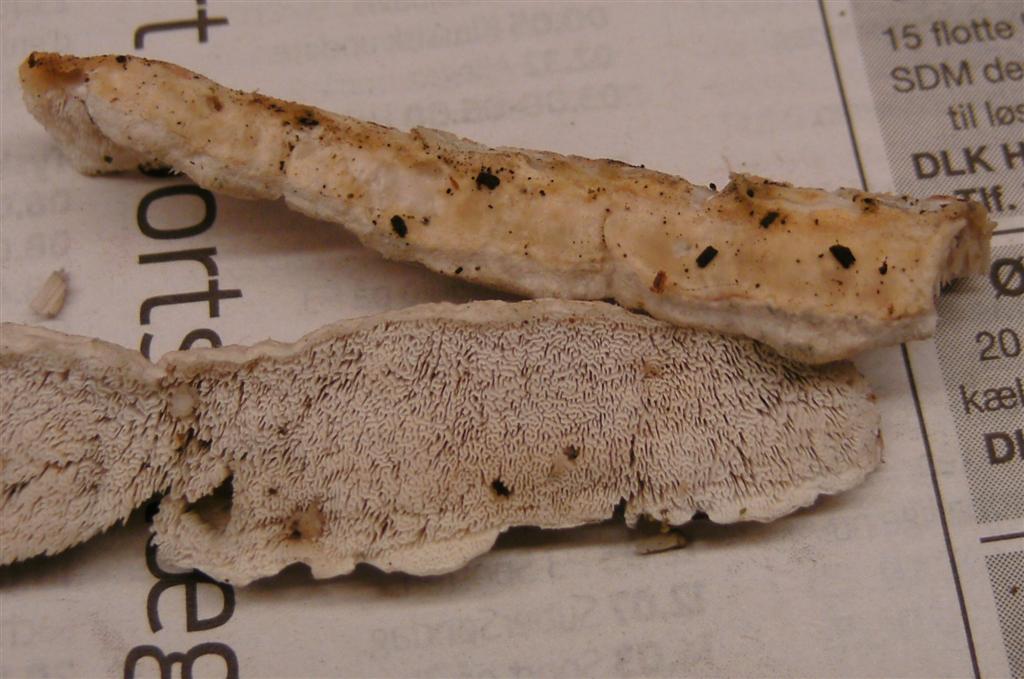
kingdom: Fungi
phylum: Basidiomycota
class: Agaricomycetes
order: Polyporales
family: Fomitopsidaceae
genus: Neoantrodia
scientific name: Neoantrodia serialis
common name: række-sejporesvamp
